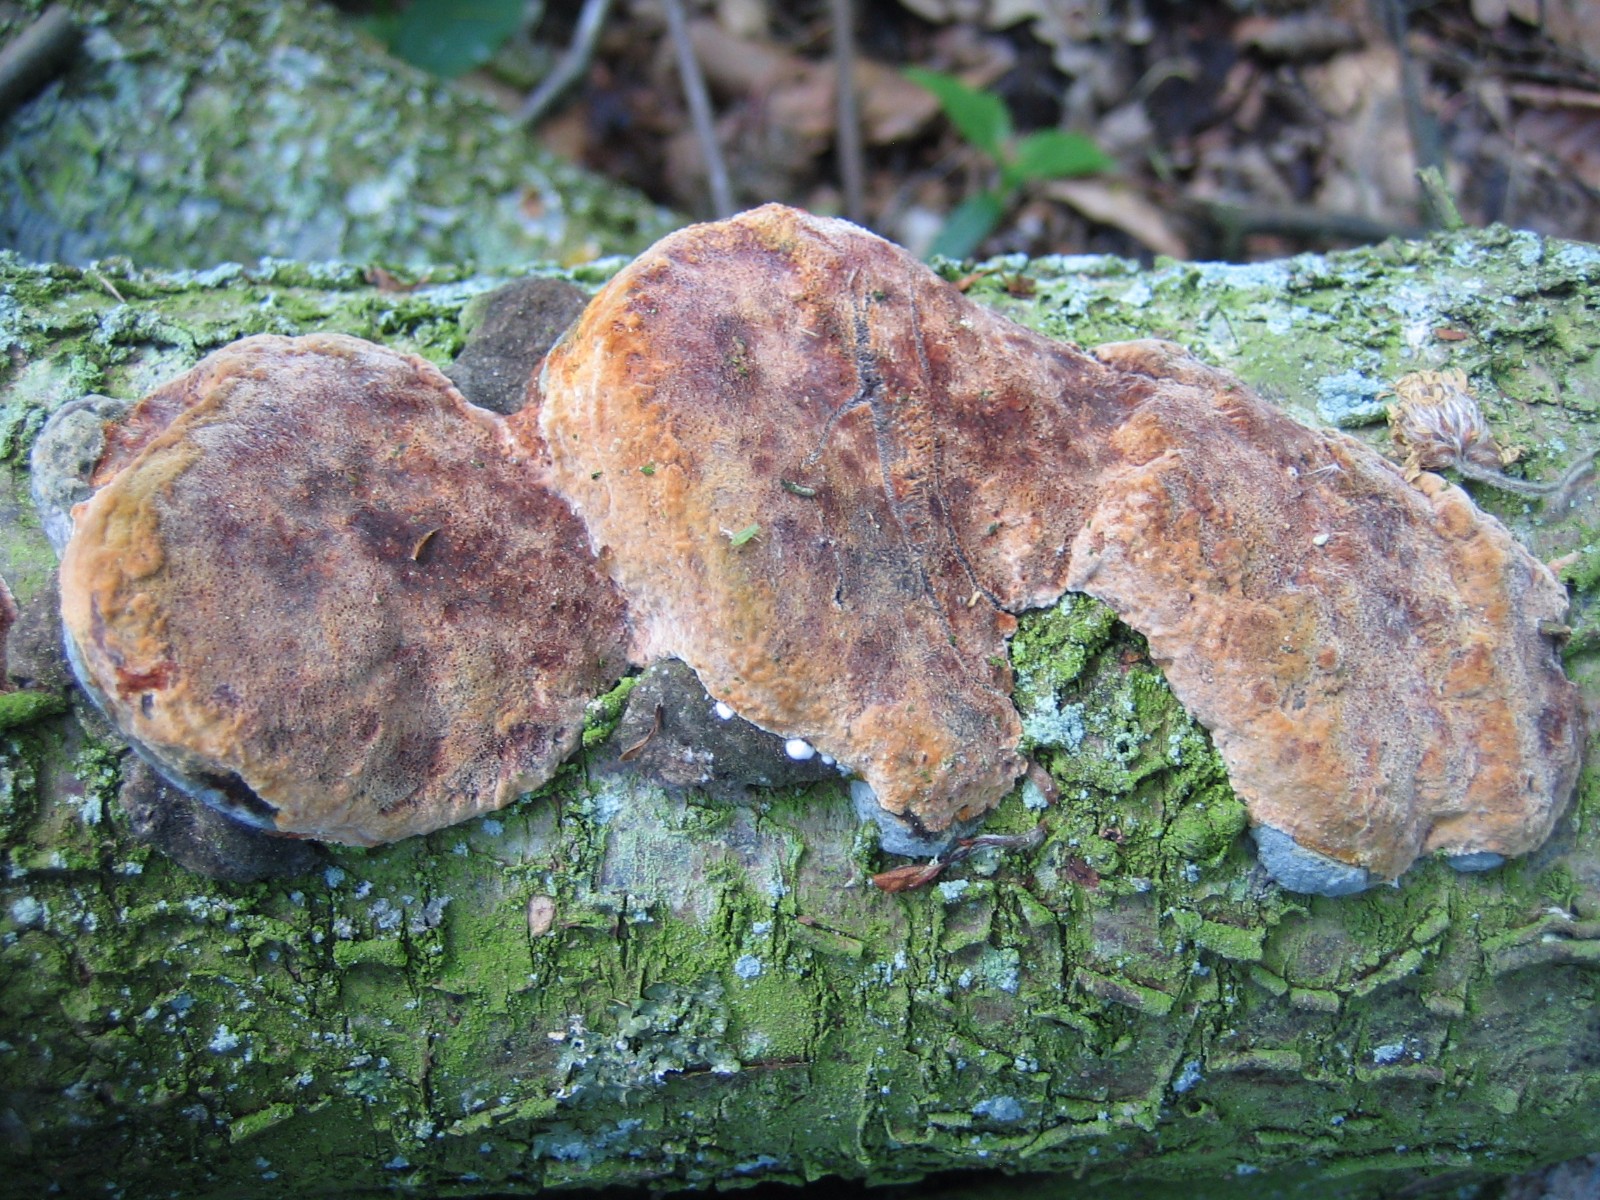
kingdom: Fungi
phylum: Basidiomycota
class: Agaricomycetes
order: Hymenochaetales
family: Hymenochaetaceae
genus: Phellinus
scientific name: Phellinus pomaceus
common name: blomme-ildporesvamp
